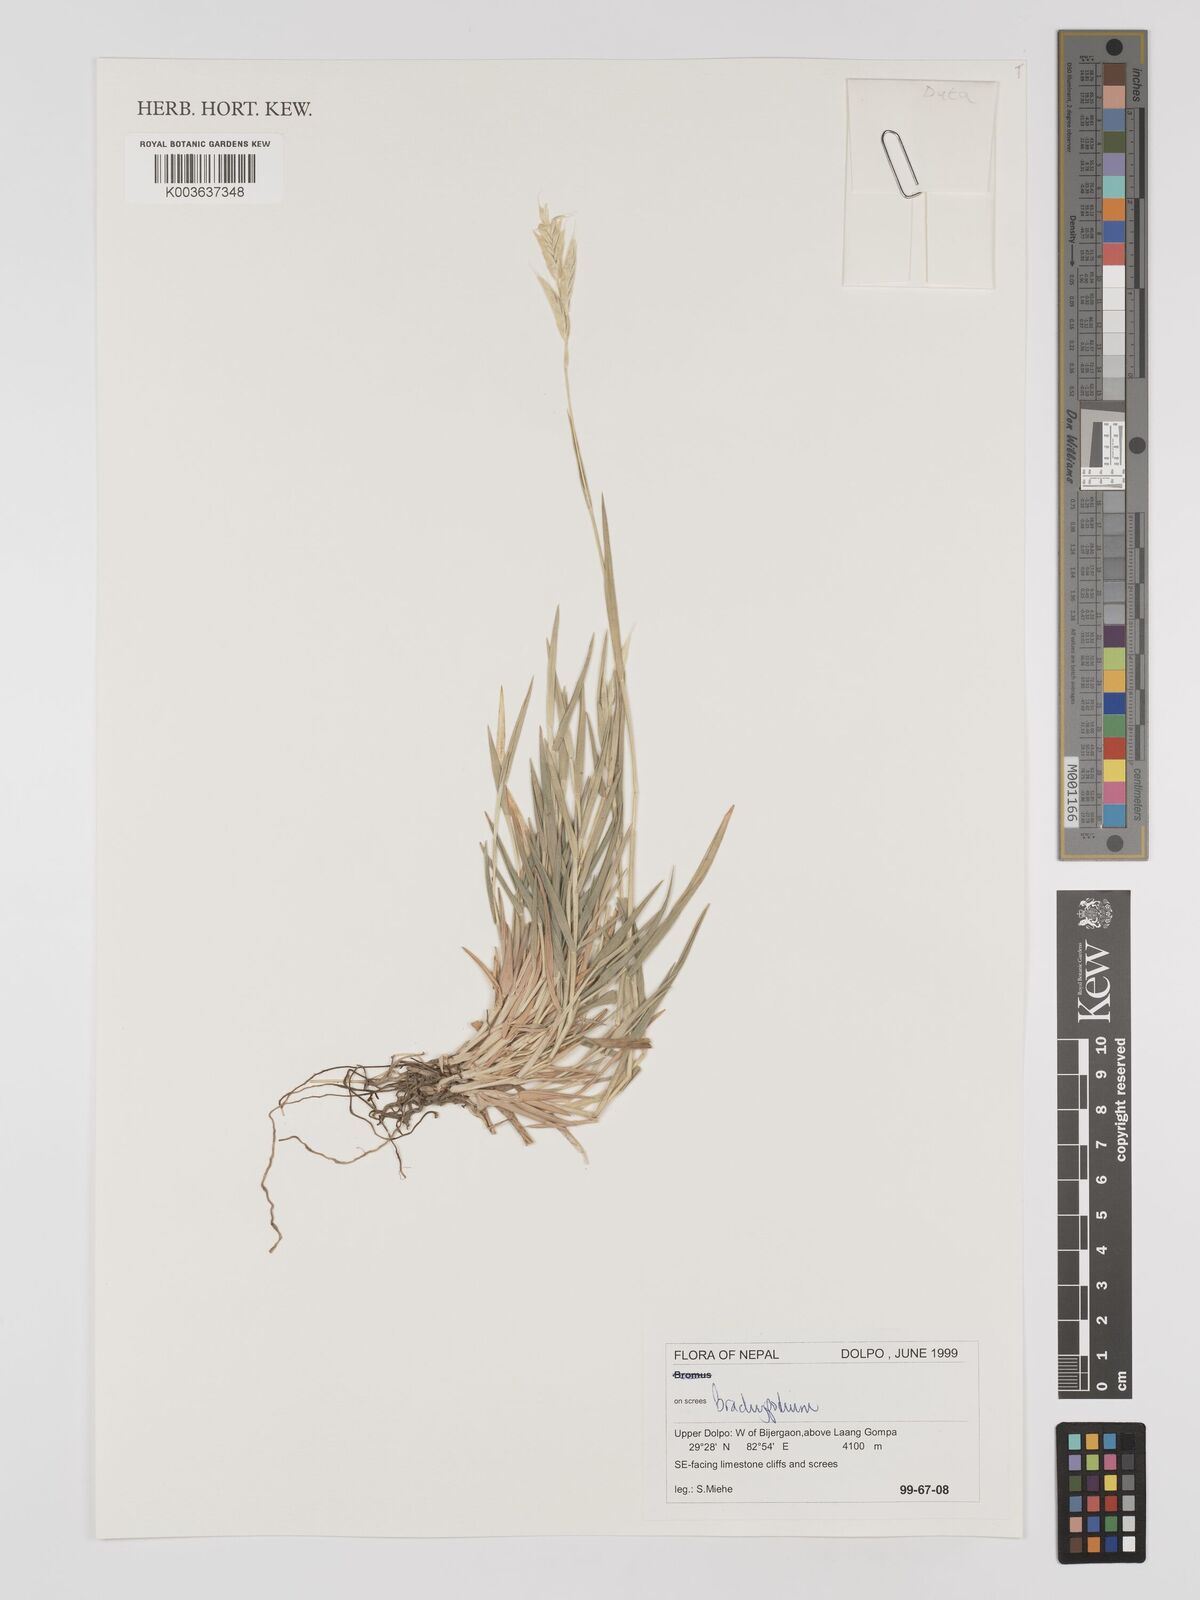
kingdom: Plantae
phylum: Tracheophyta
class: Liliopsida
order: Poales
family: Poaceae
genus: Brachypodium
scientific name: Brachypodium
